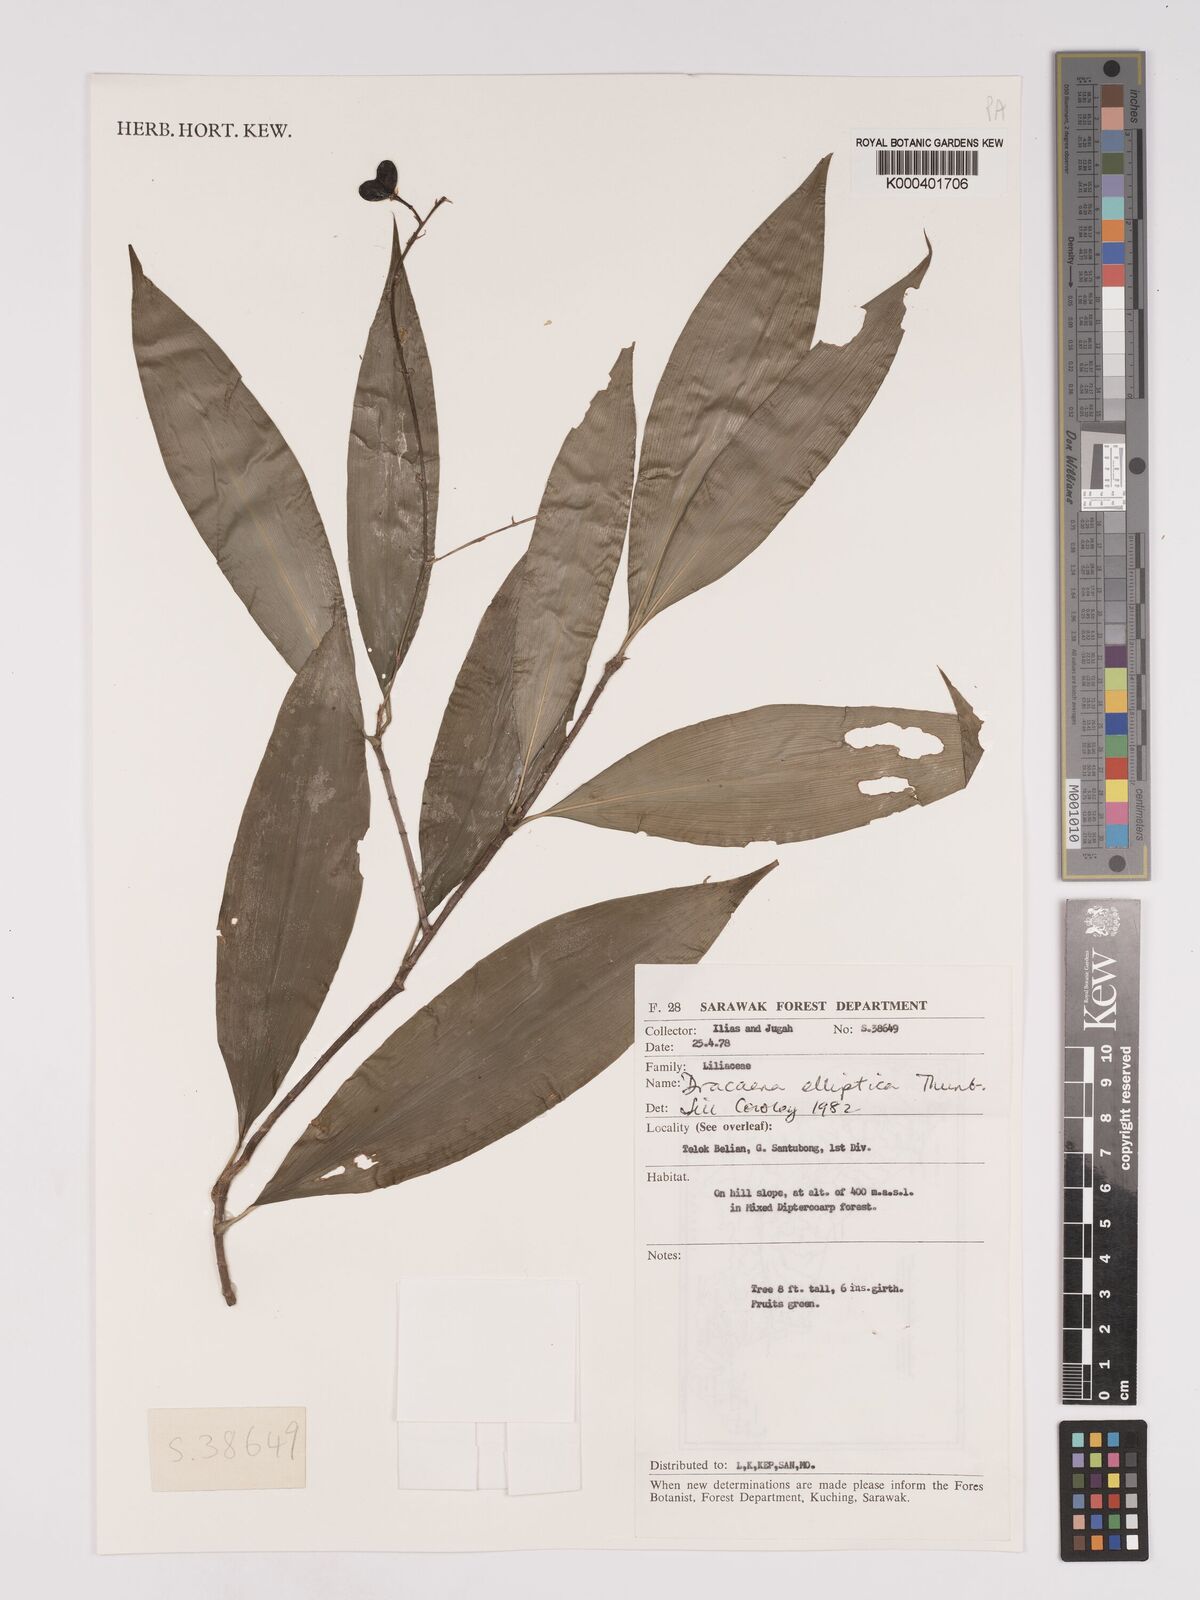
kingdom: Plantae
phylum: Tracheophyta
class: Liliopsida
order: Asparagales
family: Asparagaceae
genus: Dracaena
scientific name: Dracaena elliptica
